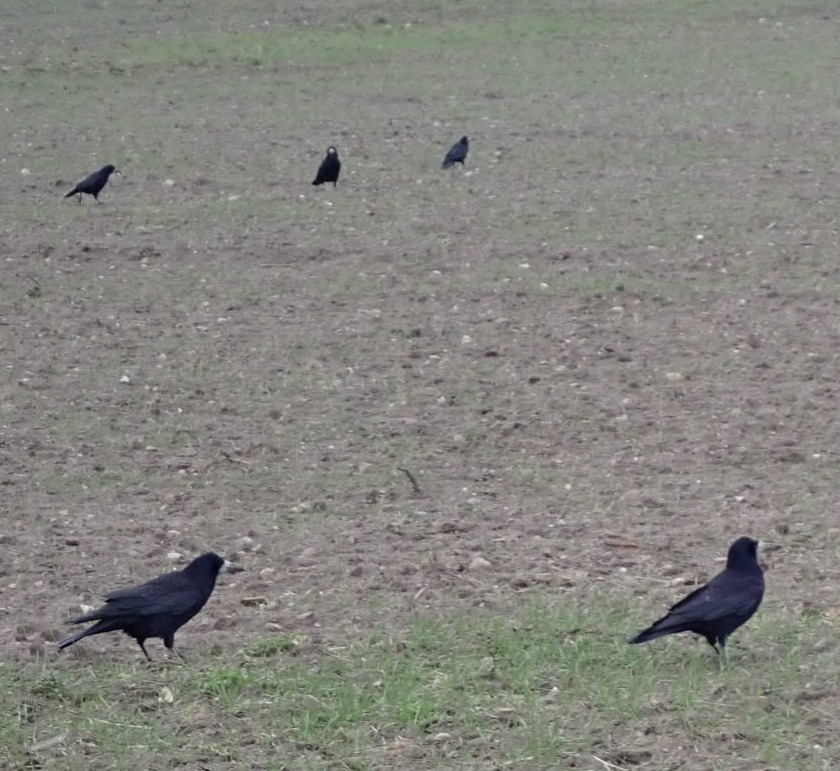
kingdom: Animalia
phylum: Chordata
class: Aves
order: Passeriformes
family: Corvidae
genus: Corvus
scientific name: Corvus frugilegus
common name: Råge
